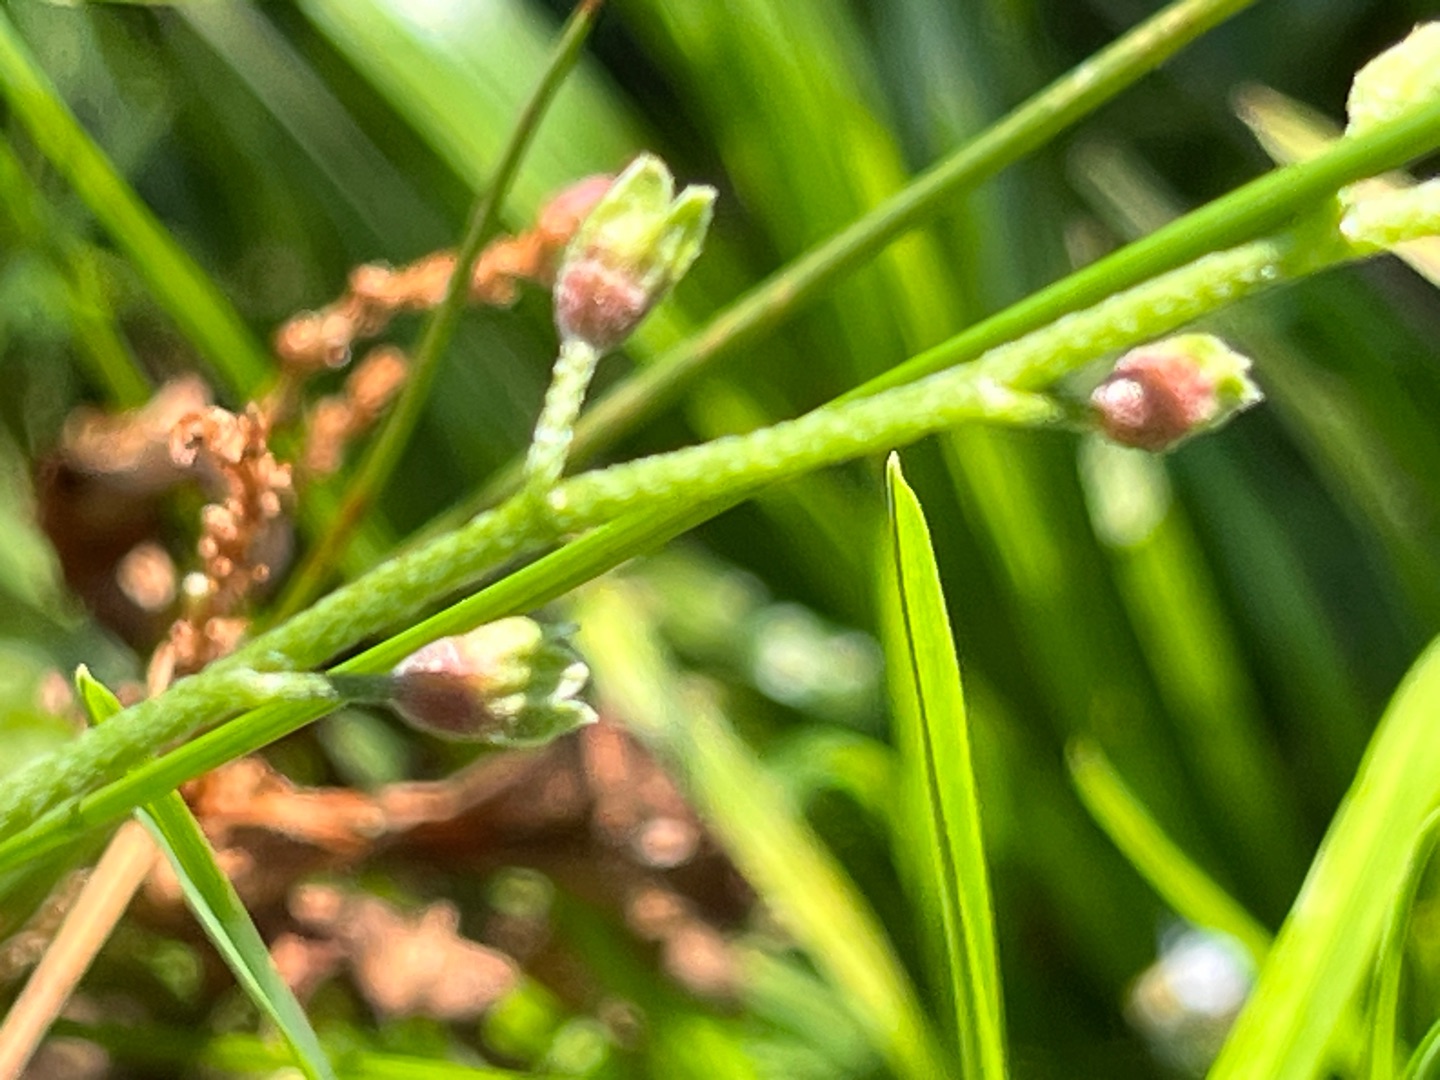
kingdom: Animalia
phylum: Arthropoda
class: Insecta
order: Diptera
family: Cecidomyiidae
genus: Dasineura
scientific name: Dasineura myosotidis
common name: Forglemmigejgalmyg
